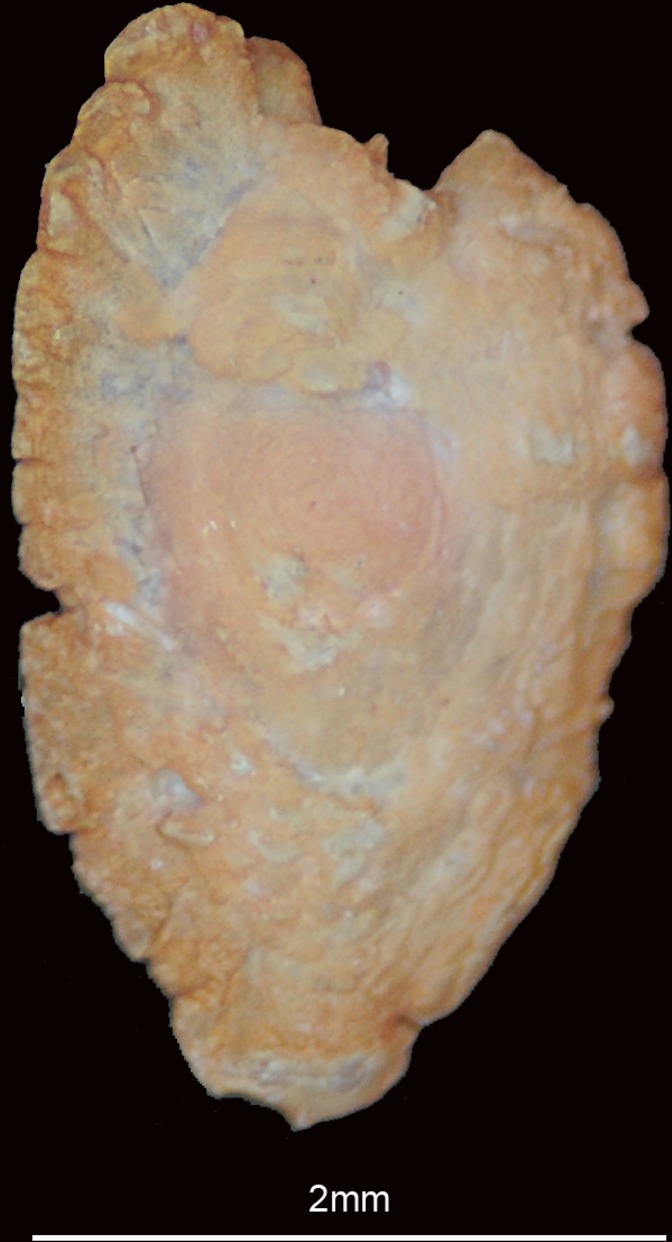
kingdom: Animalia
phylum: Chordata
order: Clupeiformes
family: Engraulidae
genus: Thryssa
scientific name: Thryssa setirostris
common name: Longjaw thryssa
